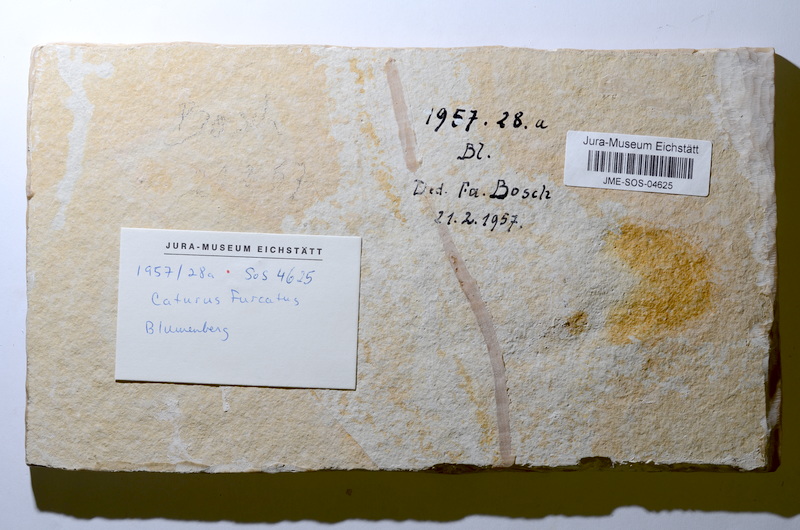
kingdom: Animalia
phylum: Chordata
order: Amiiformes
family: Caturidae
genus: Caturus
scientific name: Caturus furcatus
